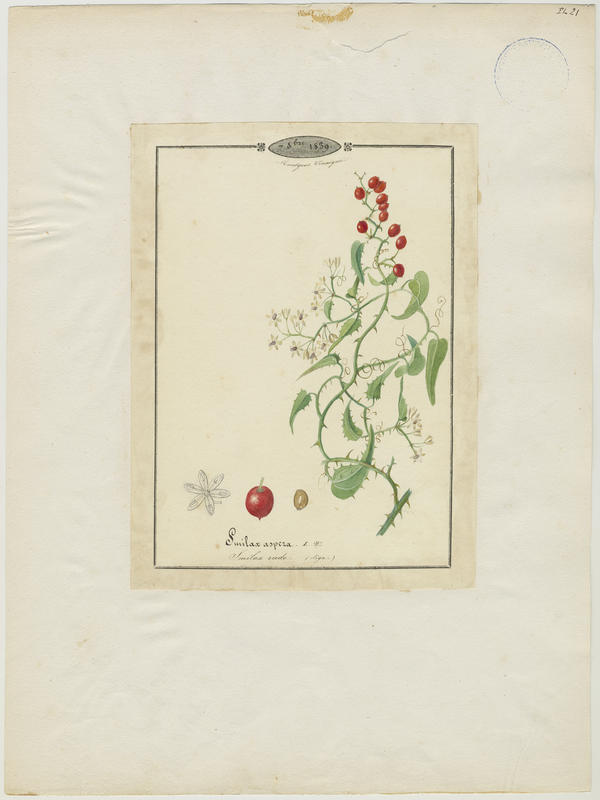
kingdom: Plantae
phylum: Tracheophyta
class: Liliopsida
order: Liliales
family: Smilacaceae
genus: Smilax
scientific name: Smilax aspera
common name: Common smilax
